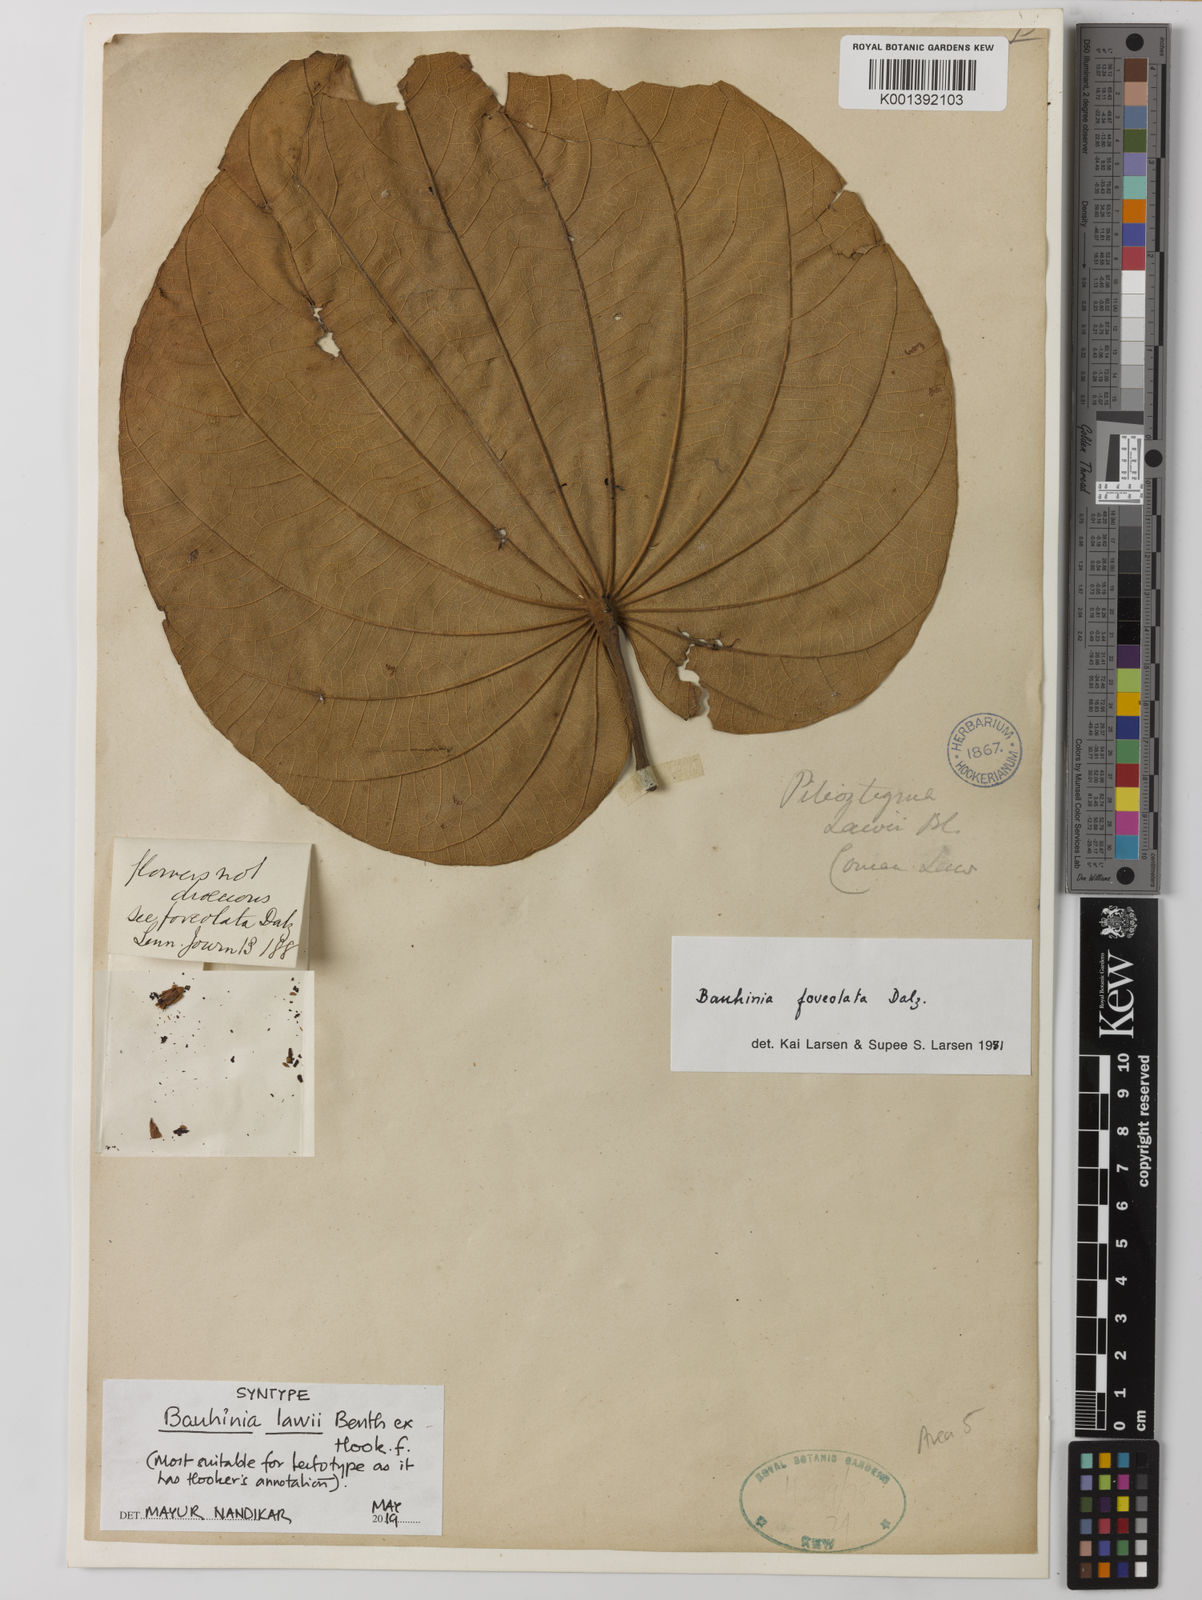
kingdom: Plantae
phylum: Tracheophyta
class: Magnoliopsida
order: Fabales
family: Fabaceae
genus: Piliostigma
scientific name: Piliostigma foveolatum
